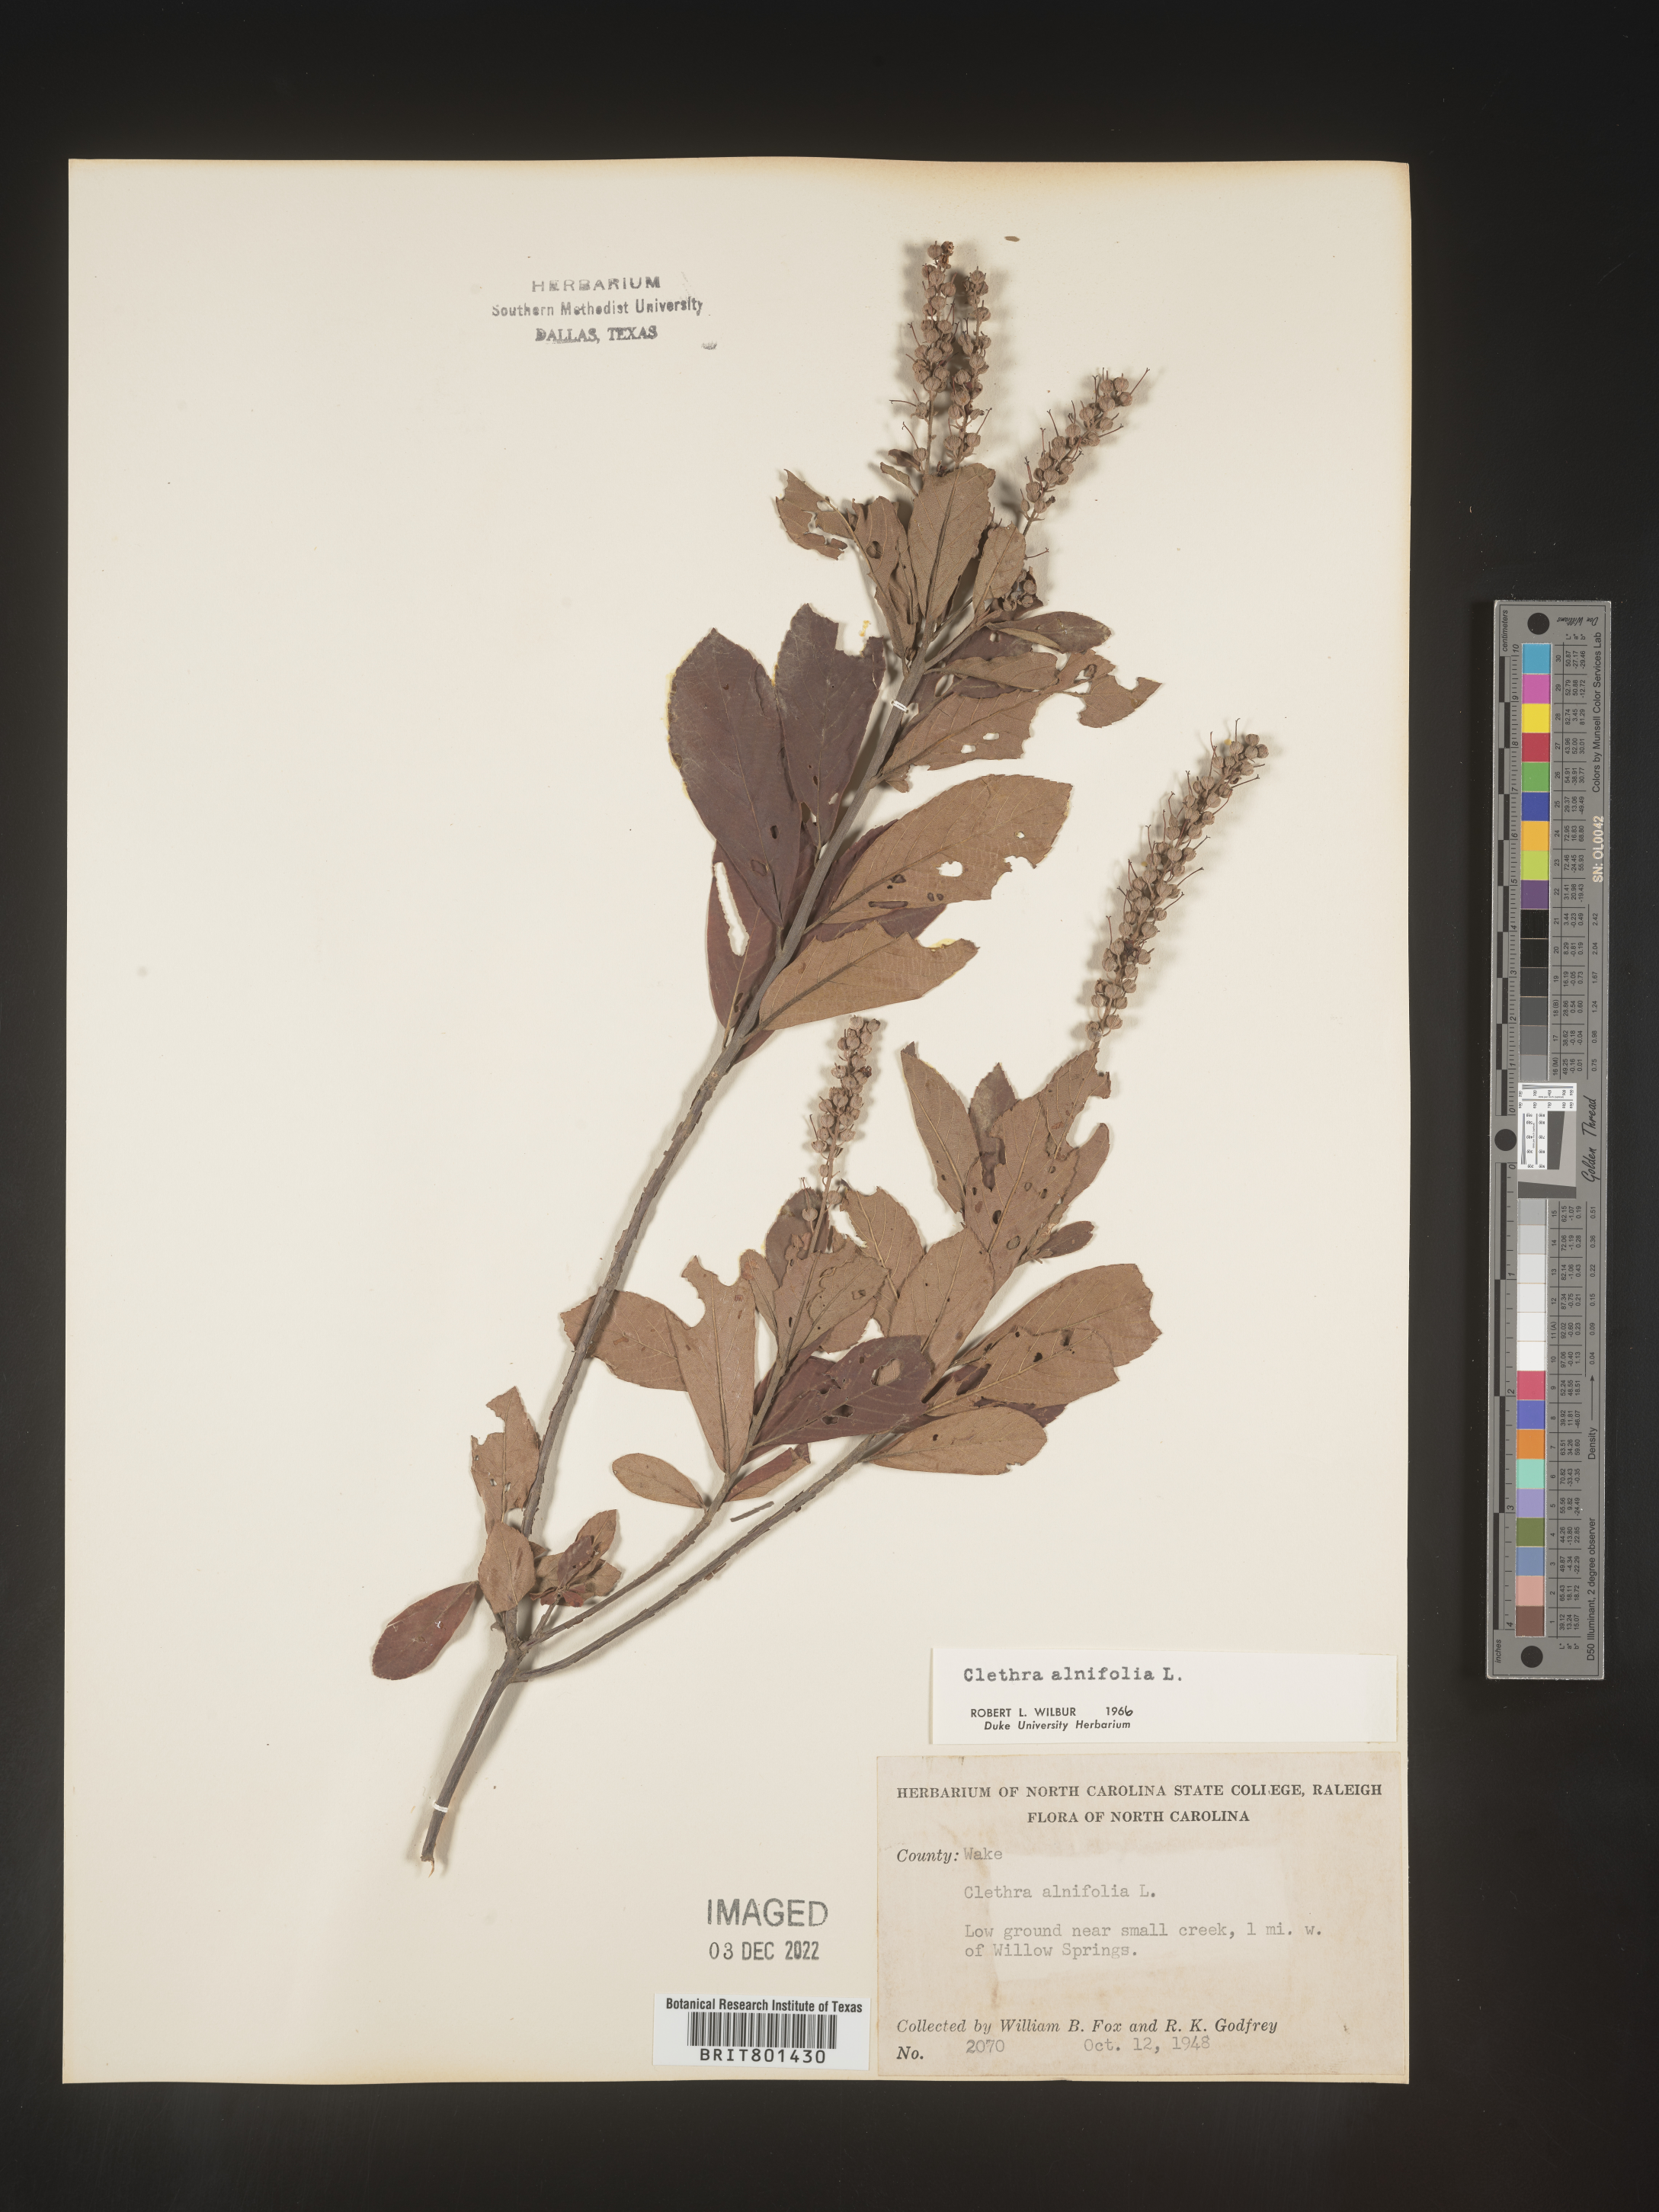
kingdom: Plantae
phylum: Tracheophyta
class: Magnoliopsida
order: Ericales
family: Clethraceae
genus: Clethra
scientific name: Clethra alnifolia
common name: Sweet pepperbush
